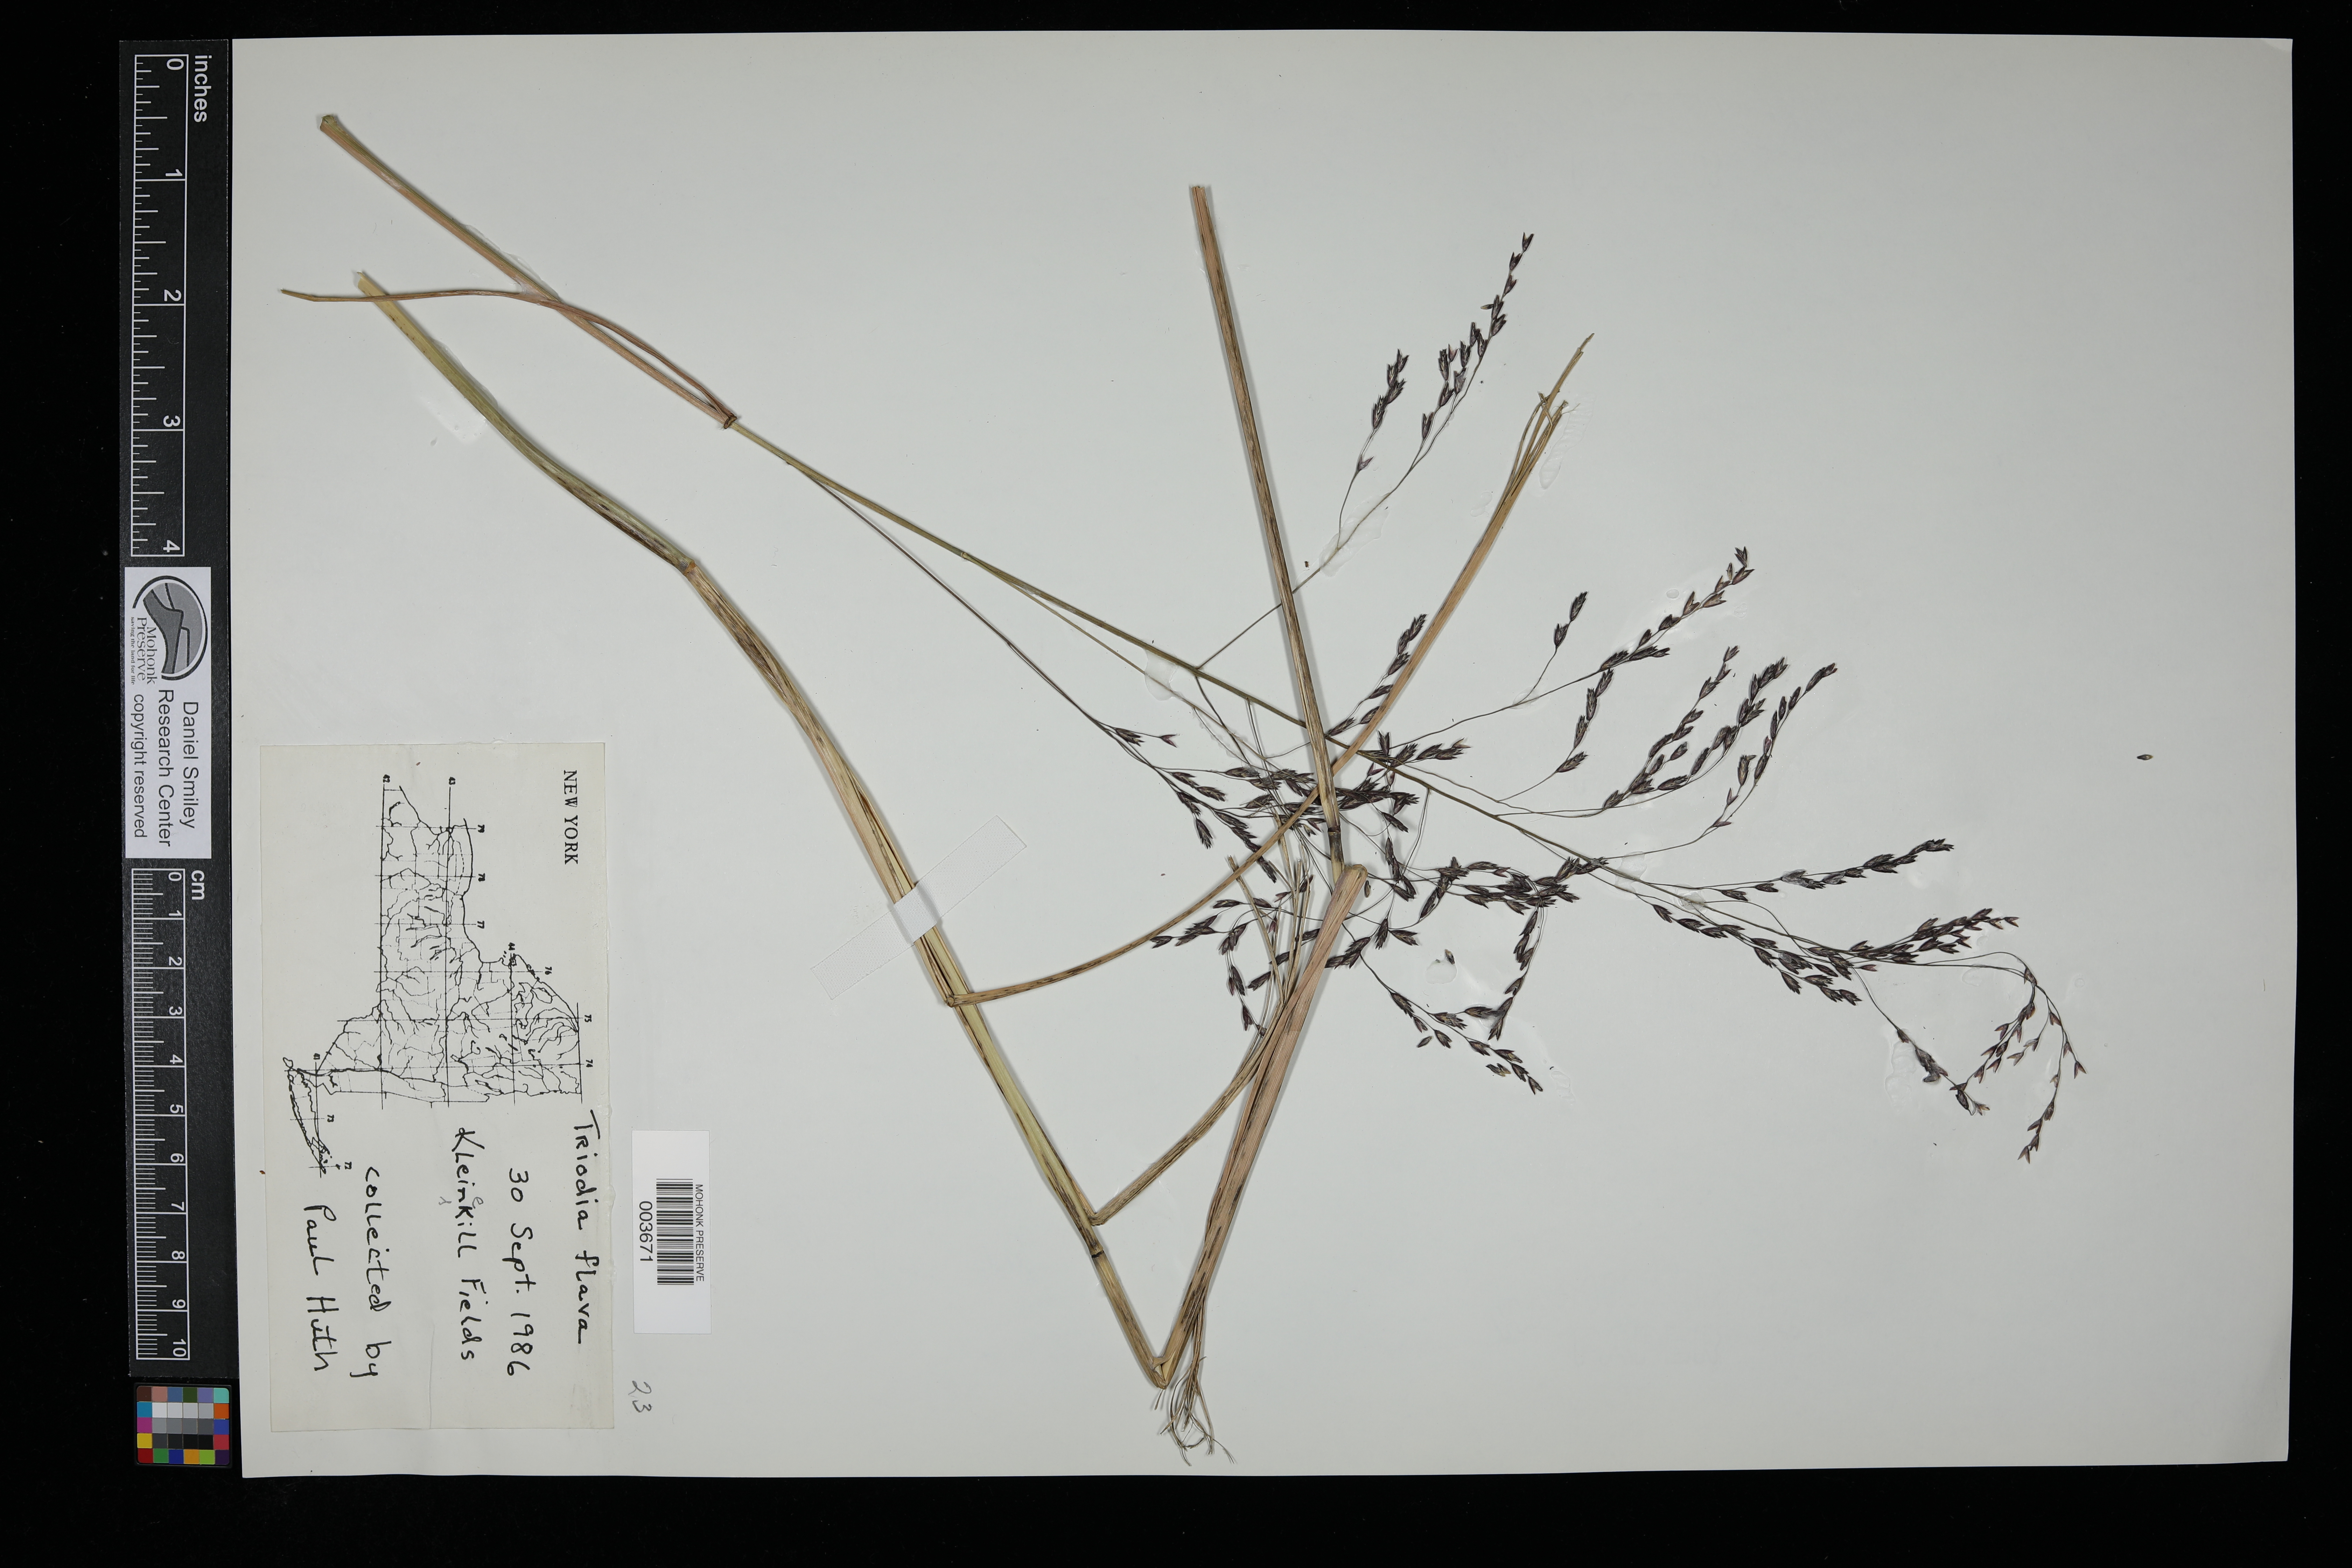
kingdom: Plantae
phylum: Tracheophyta
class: Liliopsida
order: Poales
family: Poaceae
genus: Tridens
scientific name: Tridens flavus
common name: Purpletop
